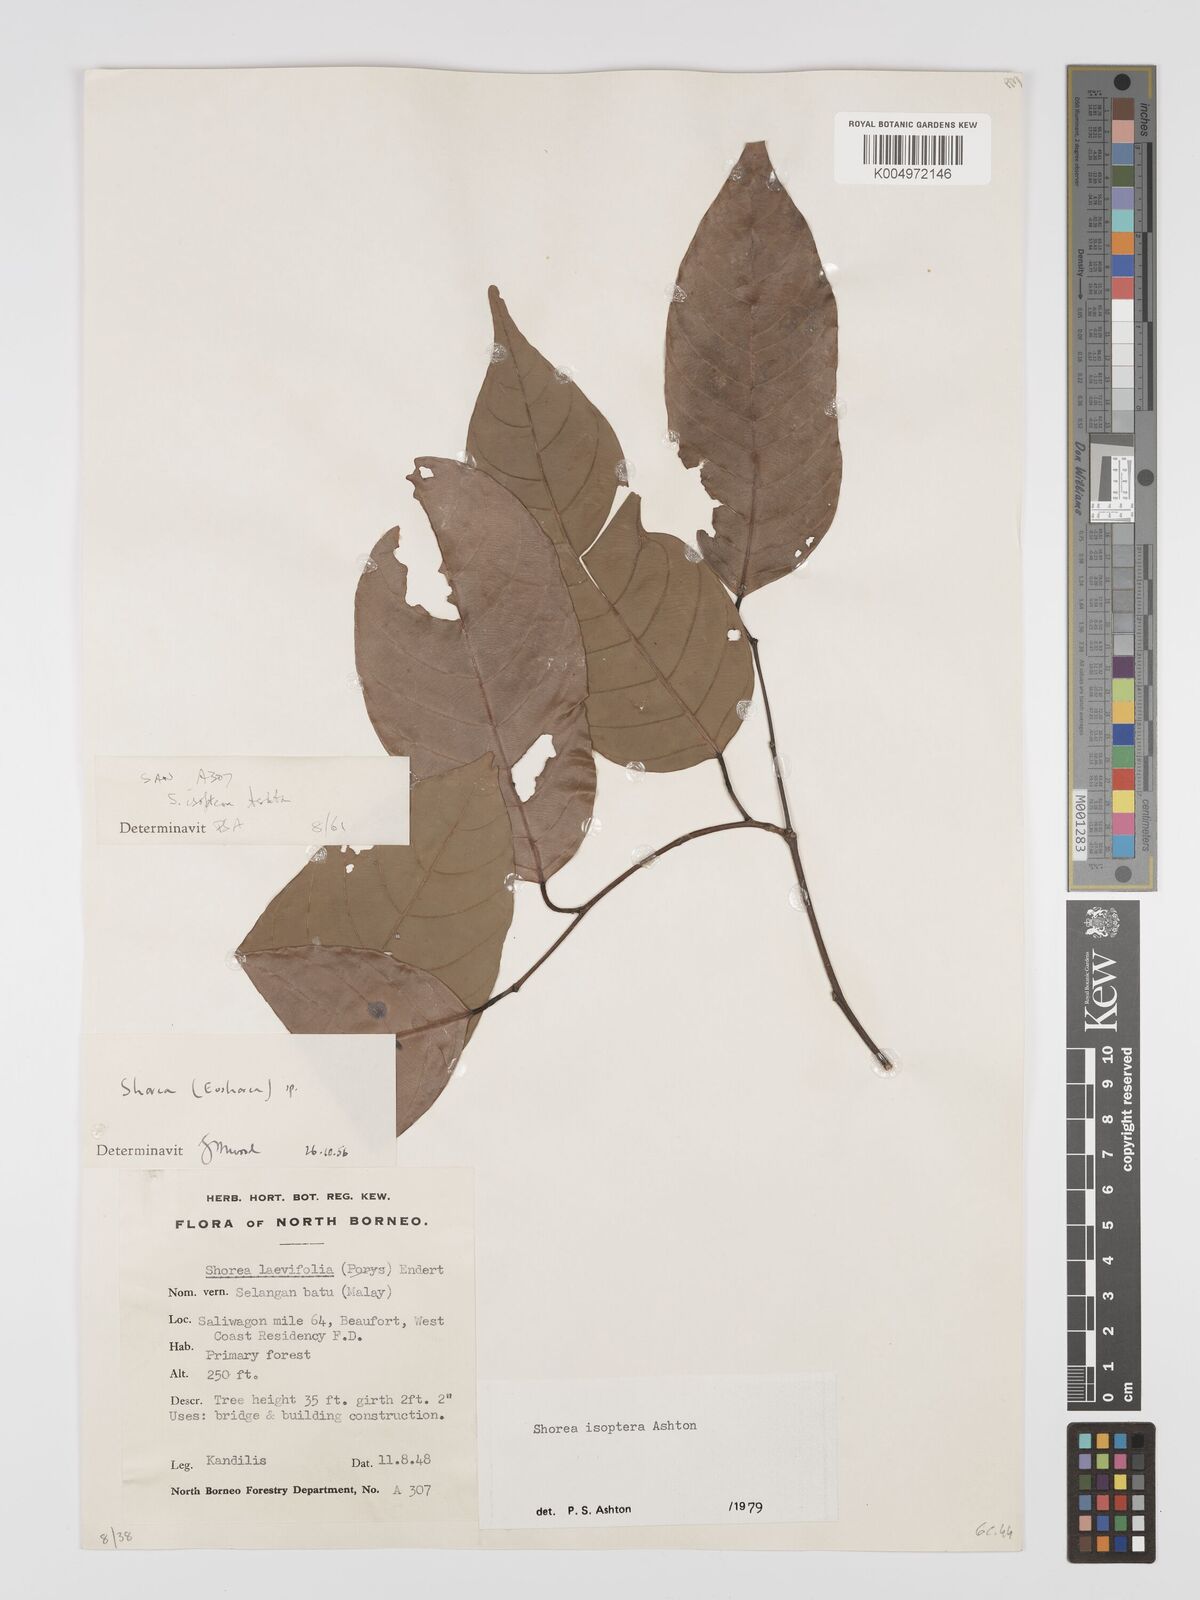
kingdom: Plantae
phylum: Tracheophyta
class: Magnoliopsida
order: Malvales
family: Dipterocarpaceae
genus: Neohopea
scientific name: Neohopea isoptera
